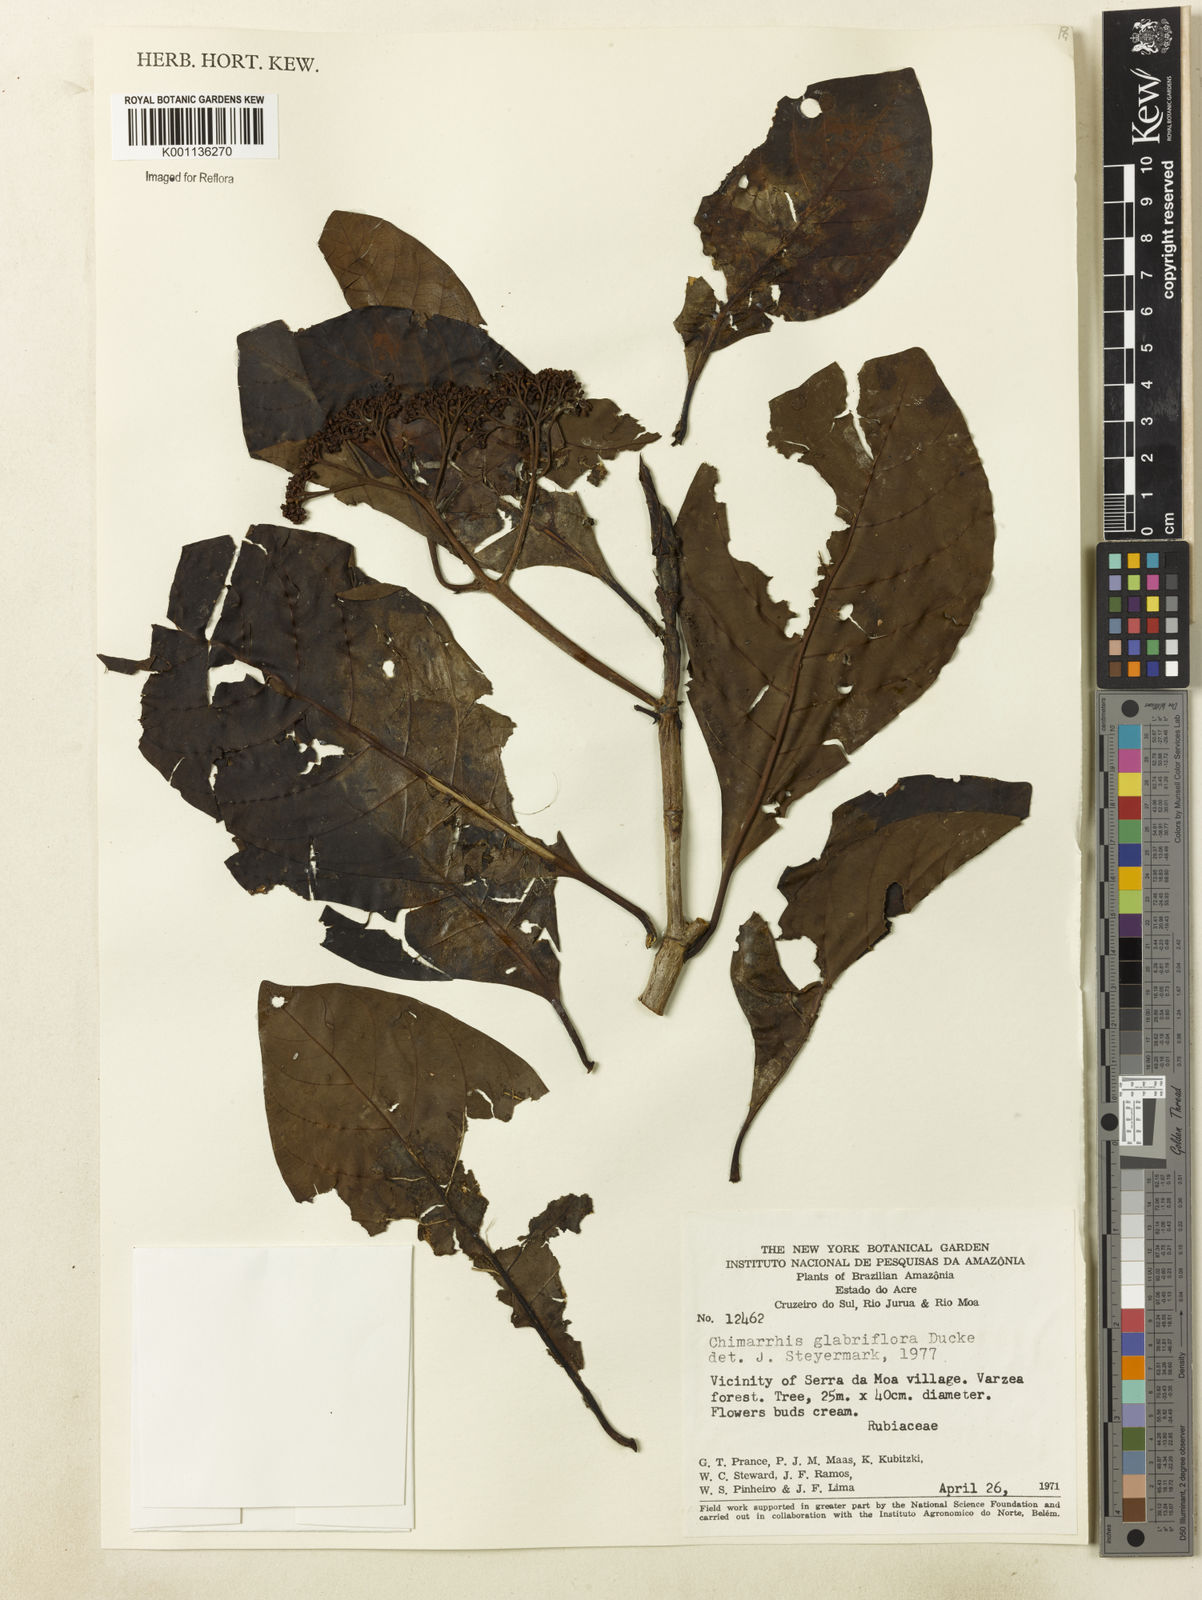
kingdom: Plantae
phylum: Tracheophyta
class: Magnoliopsida
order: Gentianales
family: Rubiaceae
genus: Chimarrhis
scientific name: Chimarrhis glabriflora
